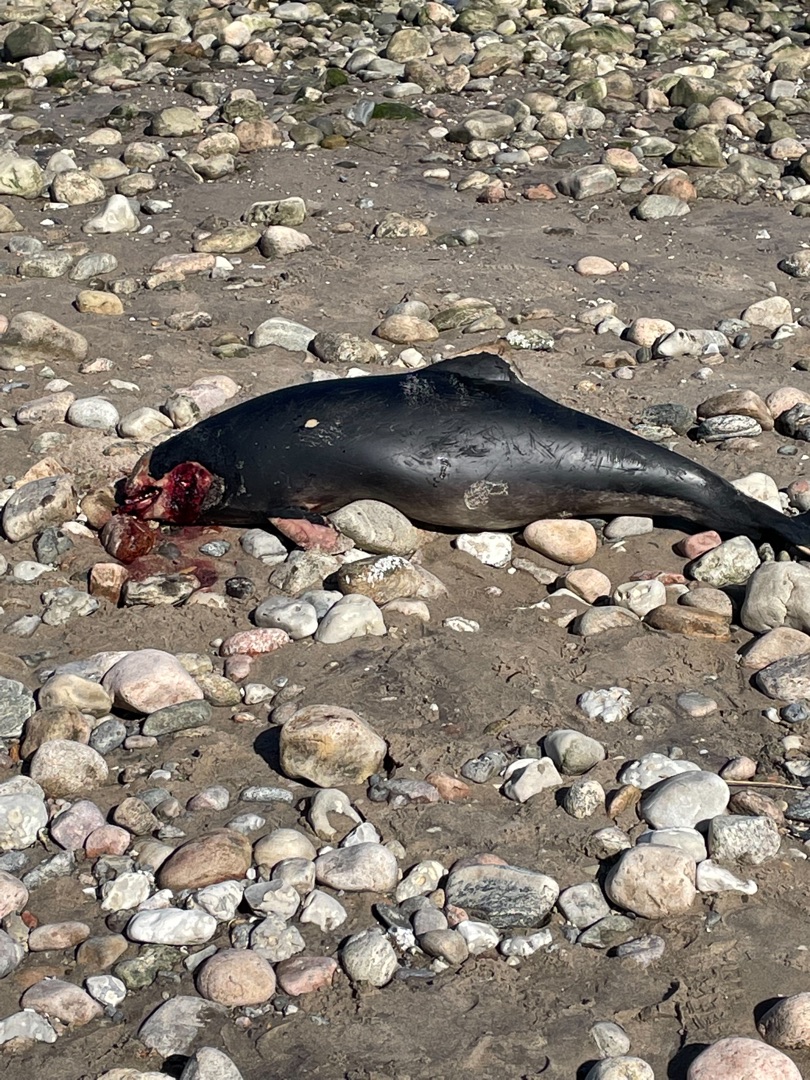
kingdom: Animalia
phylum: Chordata
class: Mammalia
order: Cetacea
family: Phocoenidae
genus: Phocoena
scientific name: Phocoena phocoena
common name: Marsvin
